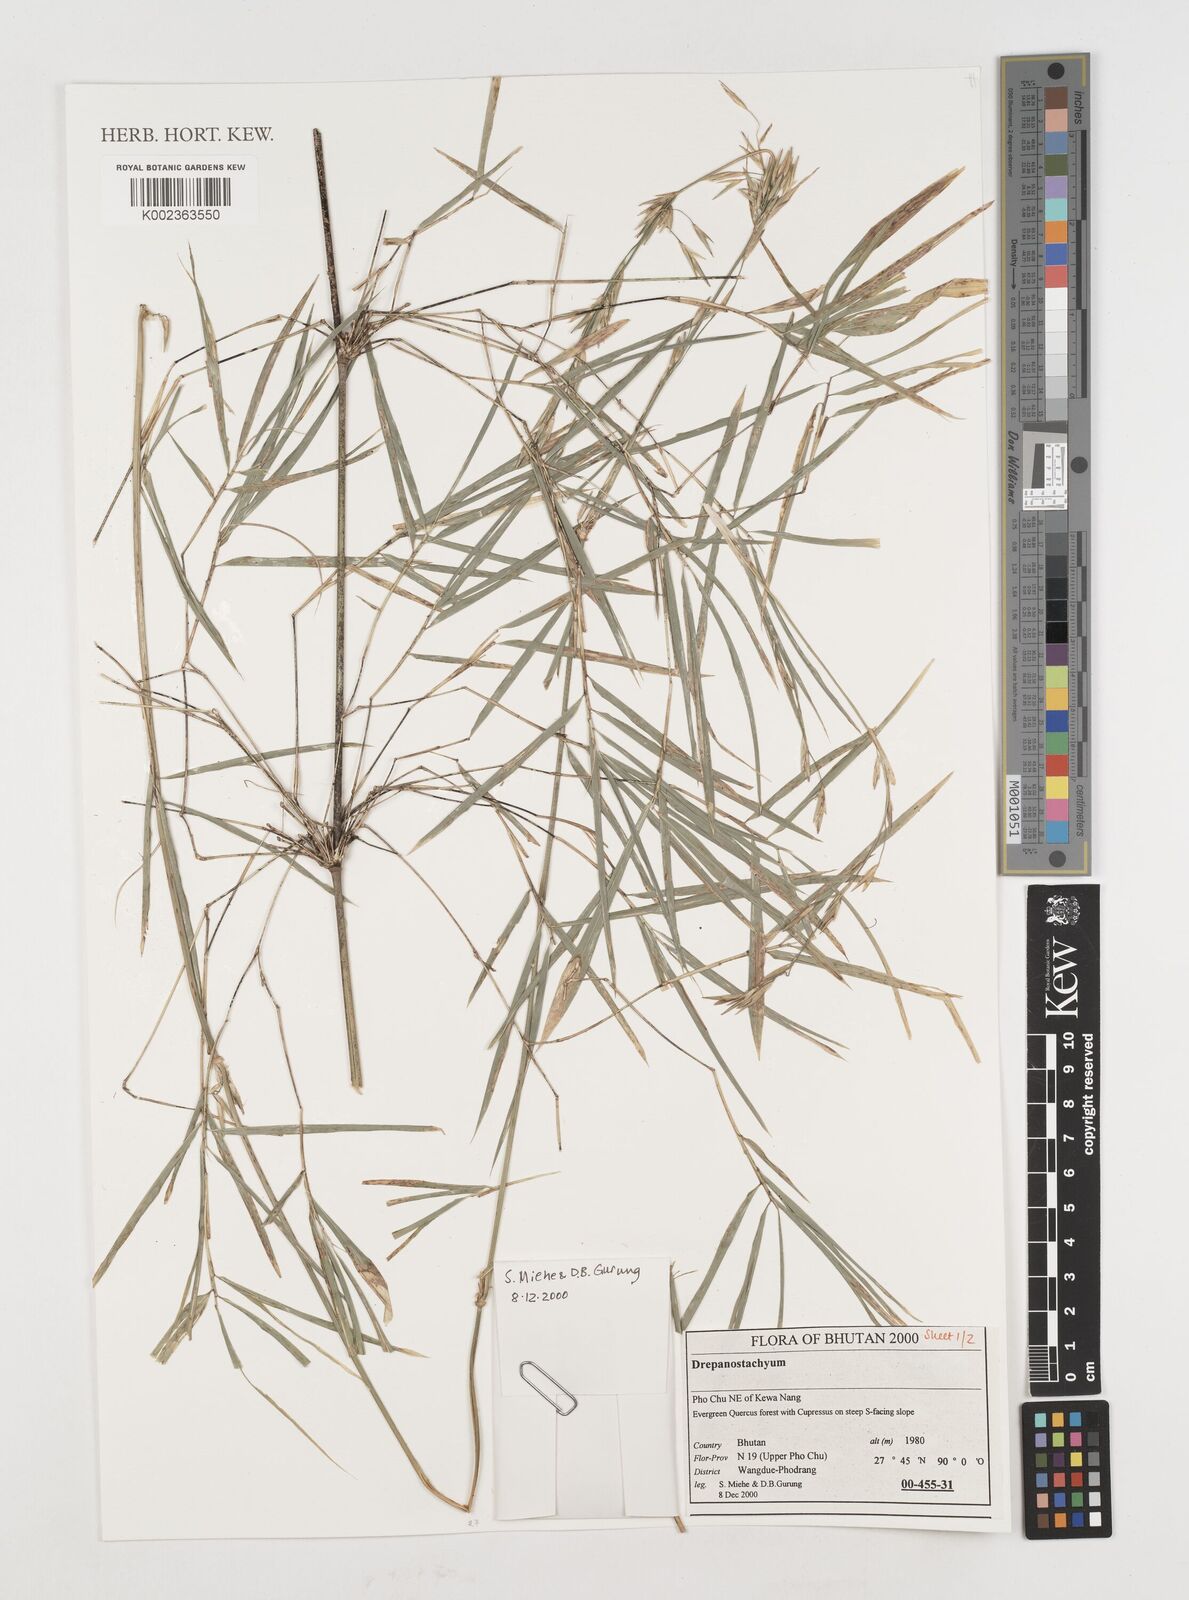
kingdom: Plantae
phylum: Tracheophyta
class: Liliopsida
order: Poales
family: Poaceae
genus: Himalayacalamus
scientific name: Himalayacalamus falconeri
